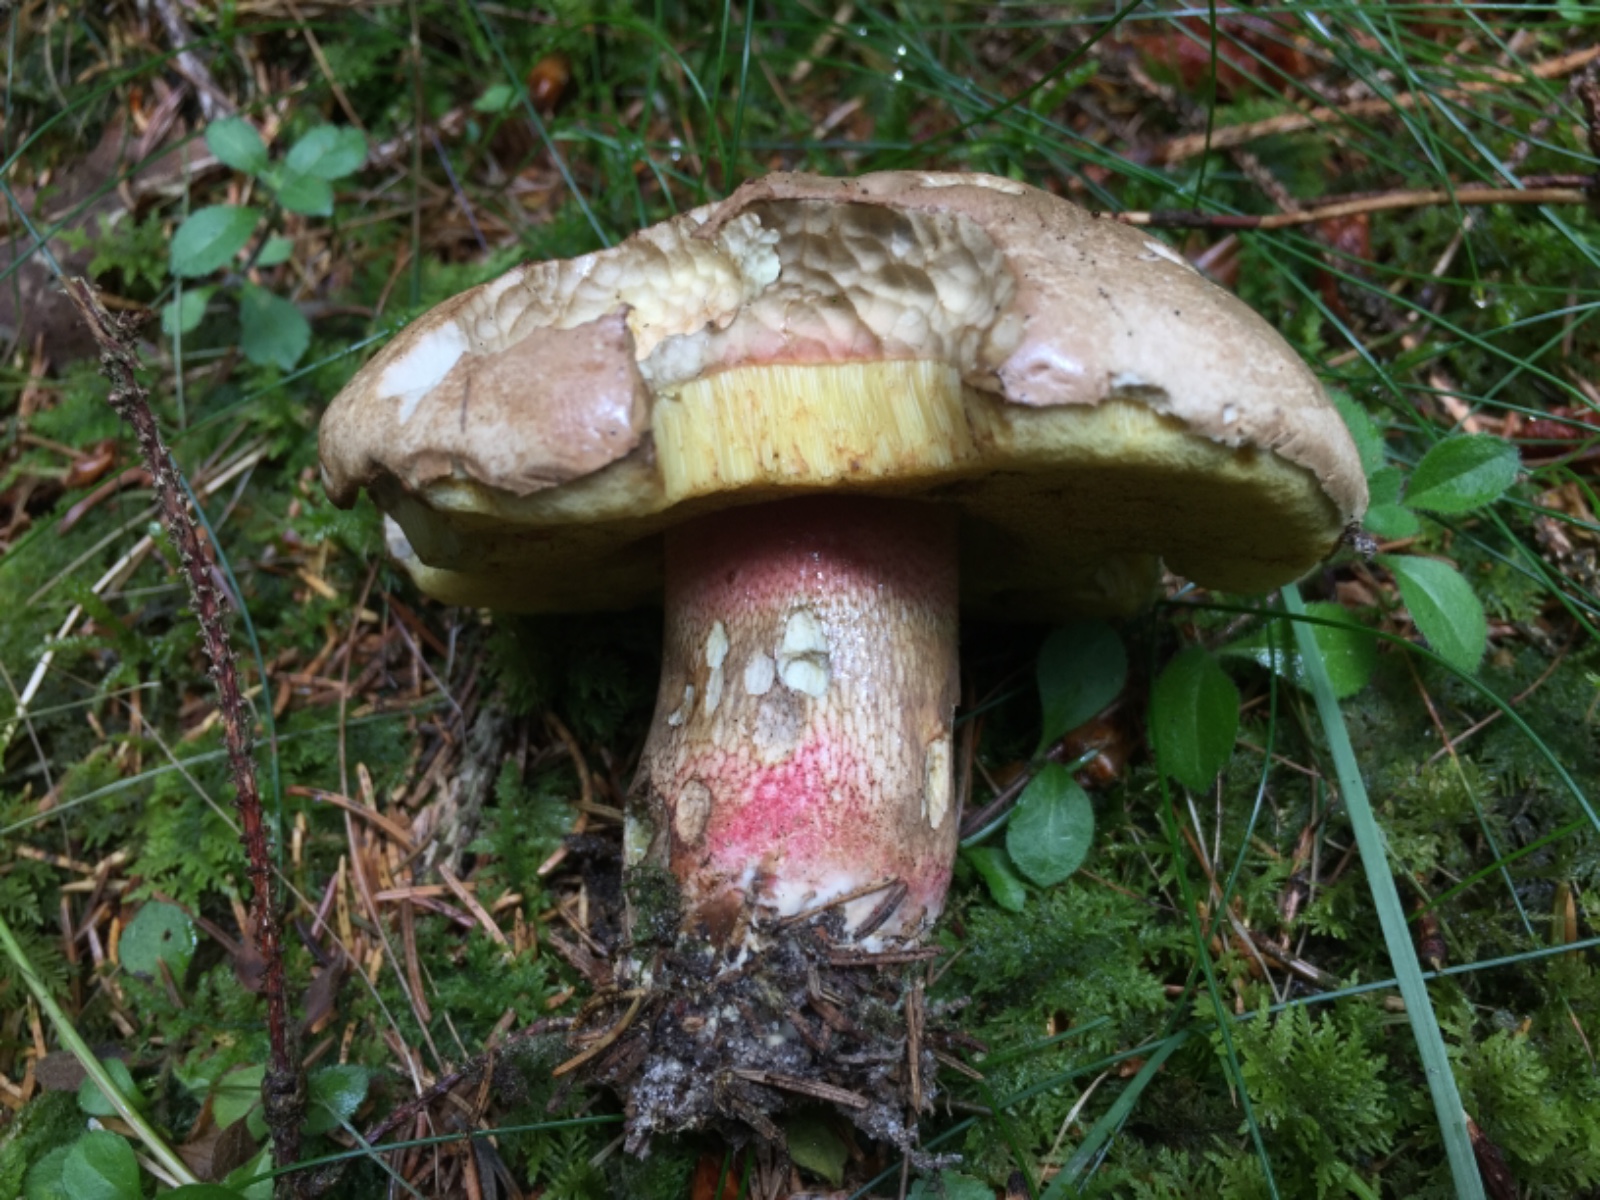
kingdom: Fungi
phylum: Basidiomycota
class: Agaricomycetes
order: Boletales
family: Boletaceae
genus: Caloboletus
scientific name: Caloboletus calopus
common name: skønfodet rørhat
